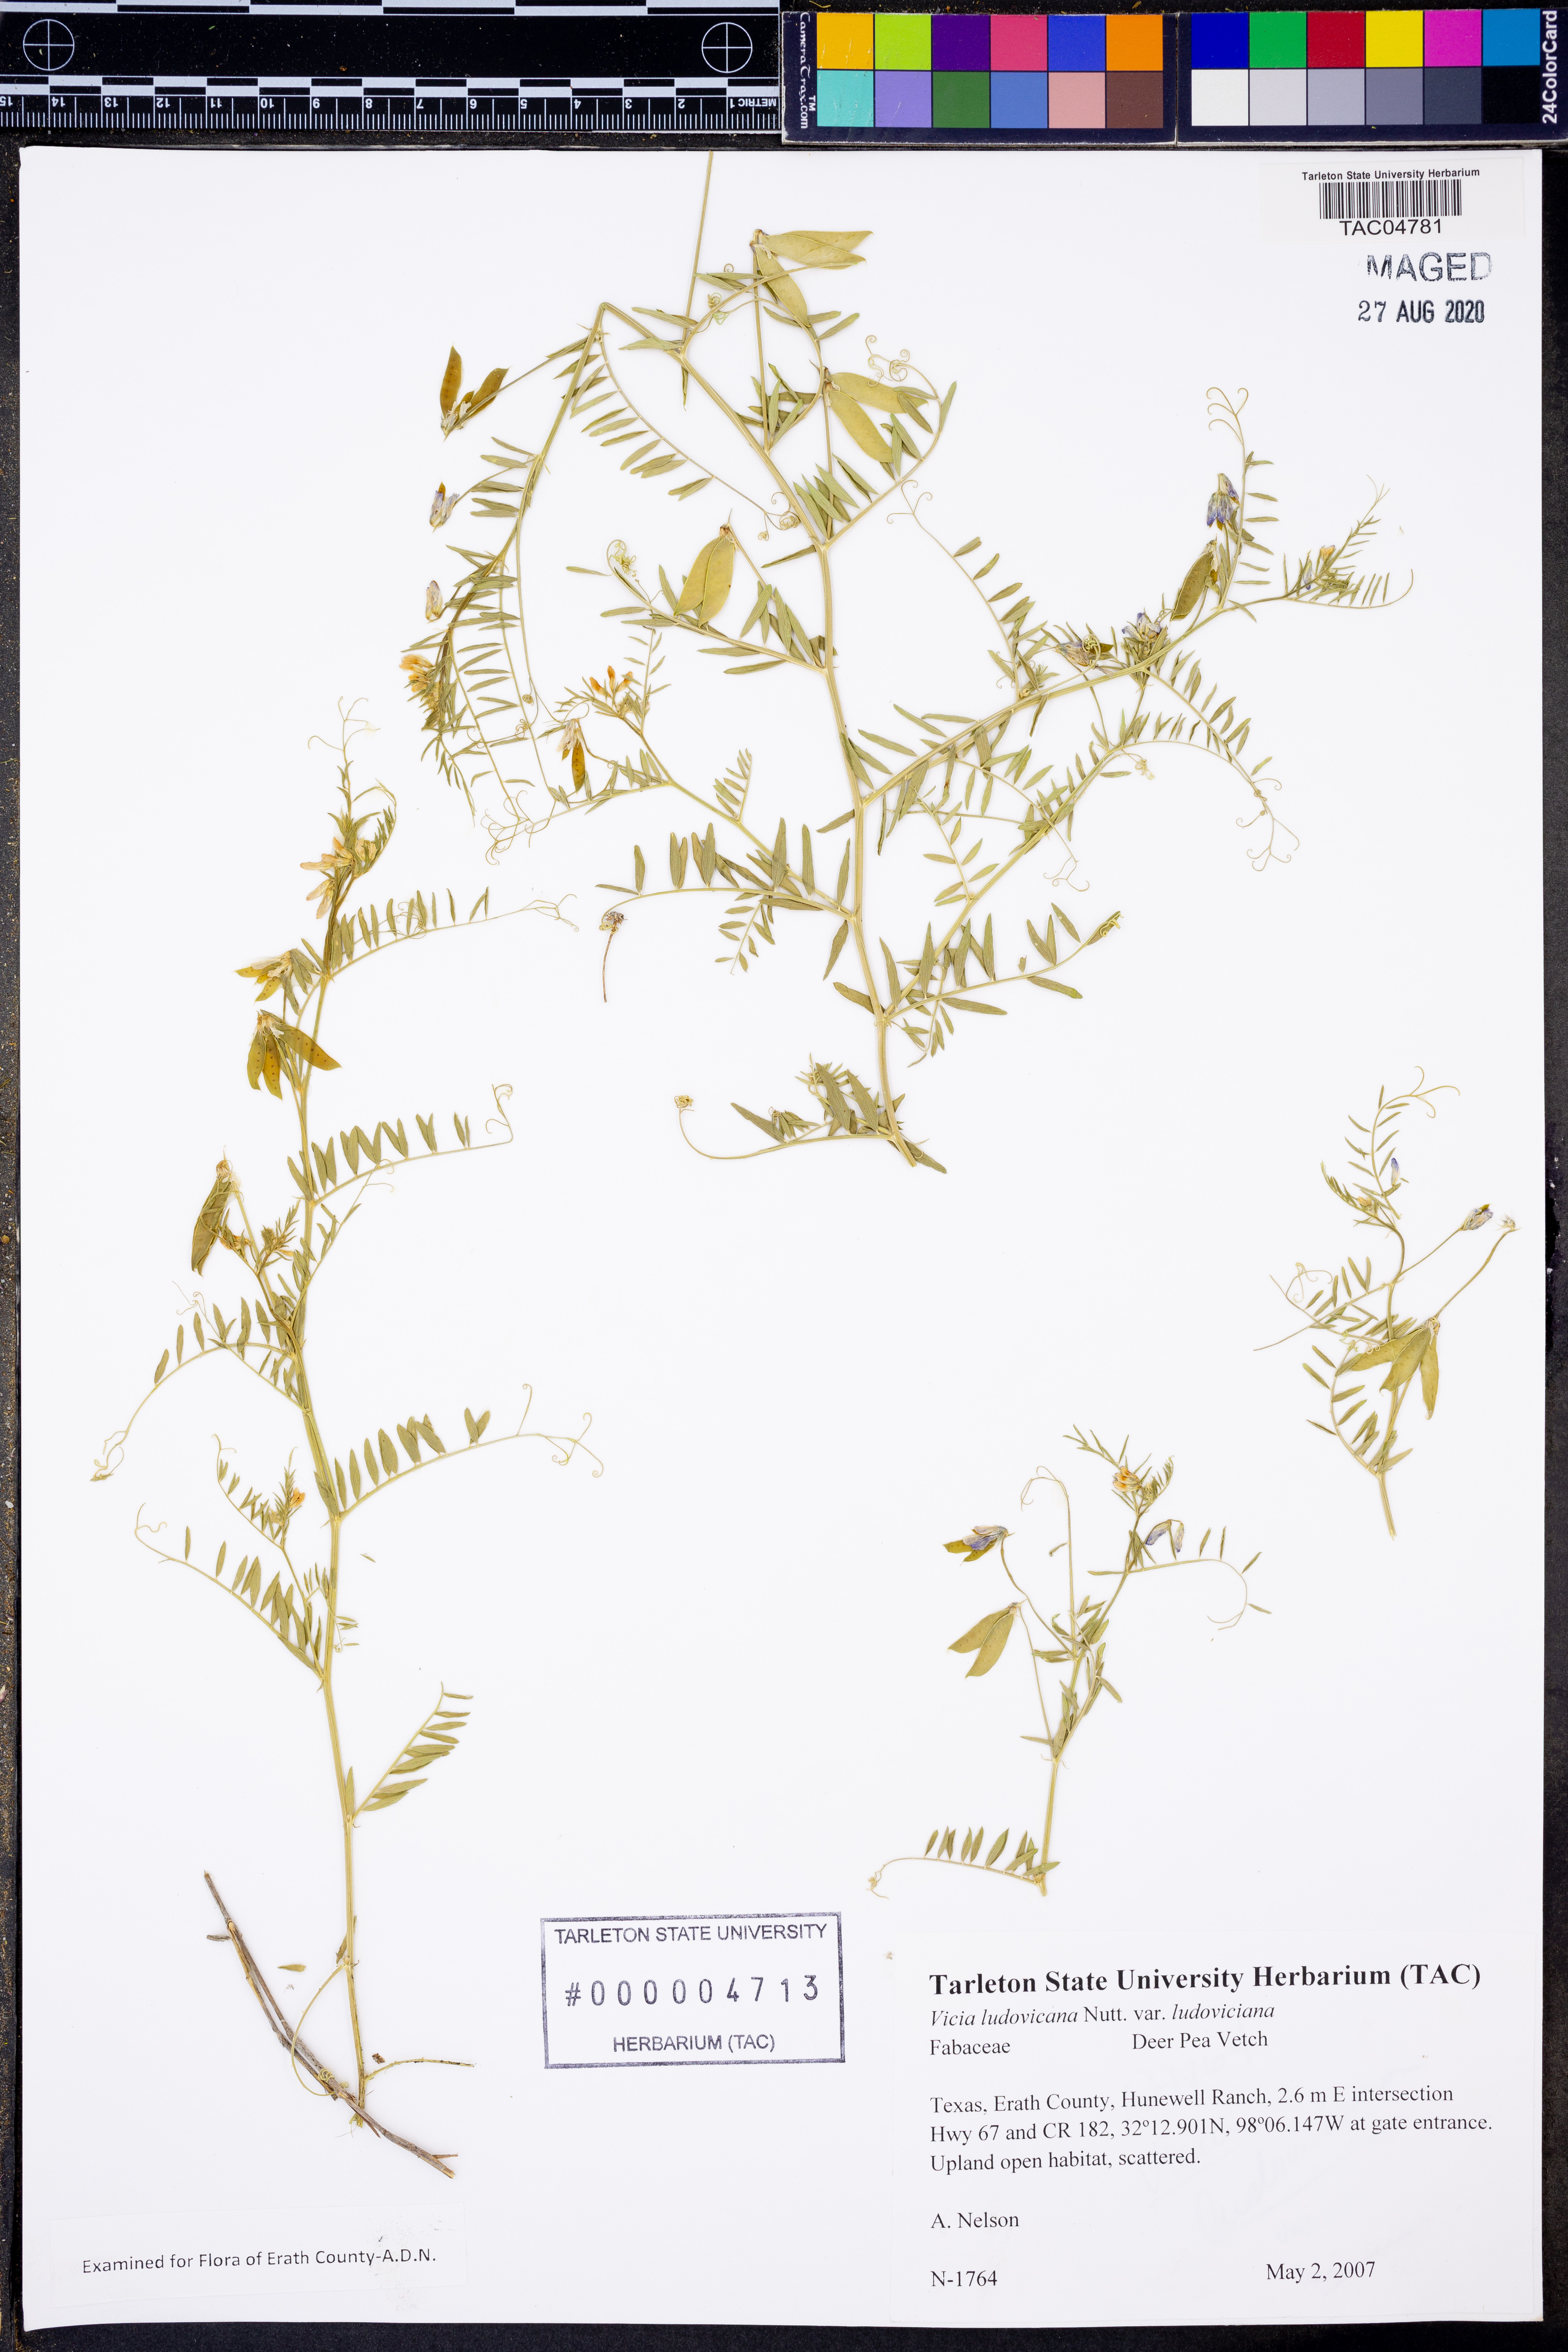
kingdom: Plantae
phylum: Tracheophyta
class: Magnoliopsida
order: Fabales
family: Fabaceae
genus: Vicia
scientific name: Vicia ludoviciana
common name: Louisiana vetch
